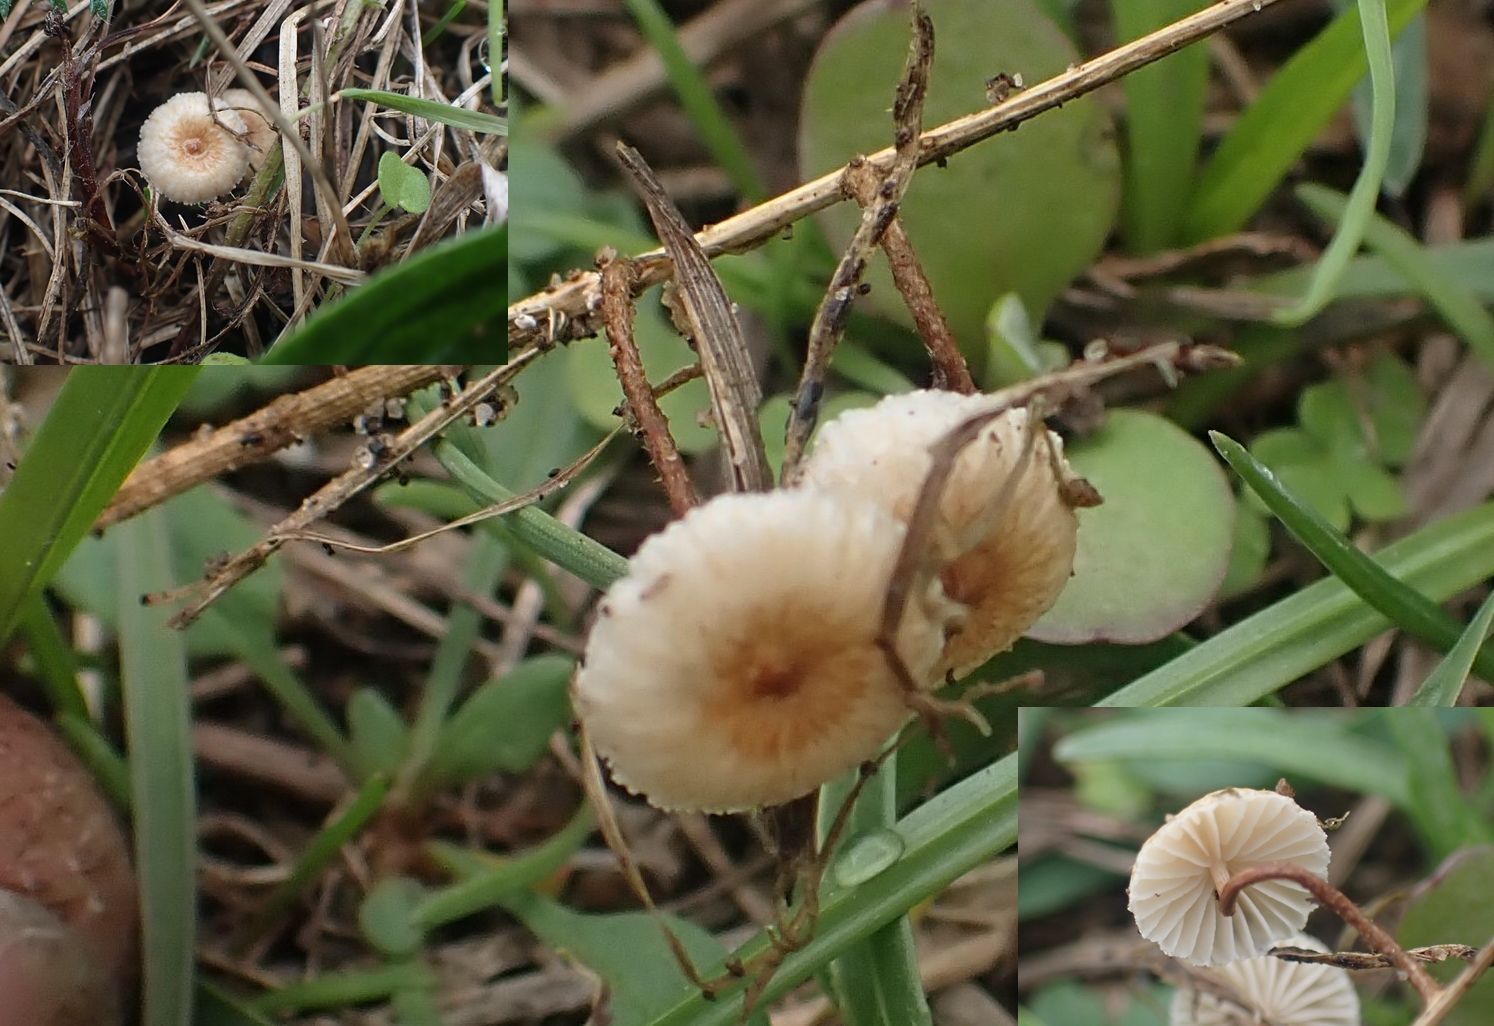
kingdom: Fungi
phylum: Basidiomycota
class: Agaricomycetes
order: Agaricales
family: Marasmiaceae
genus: Crinipellis
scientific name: Crinipellis scabella
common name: børstefod
